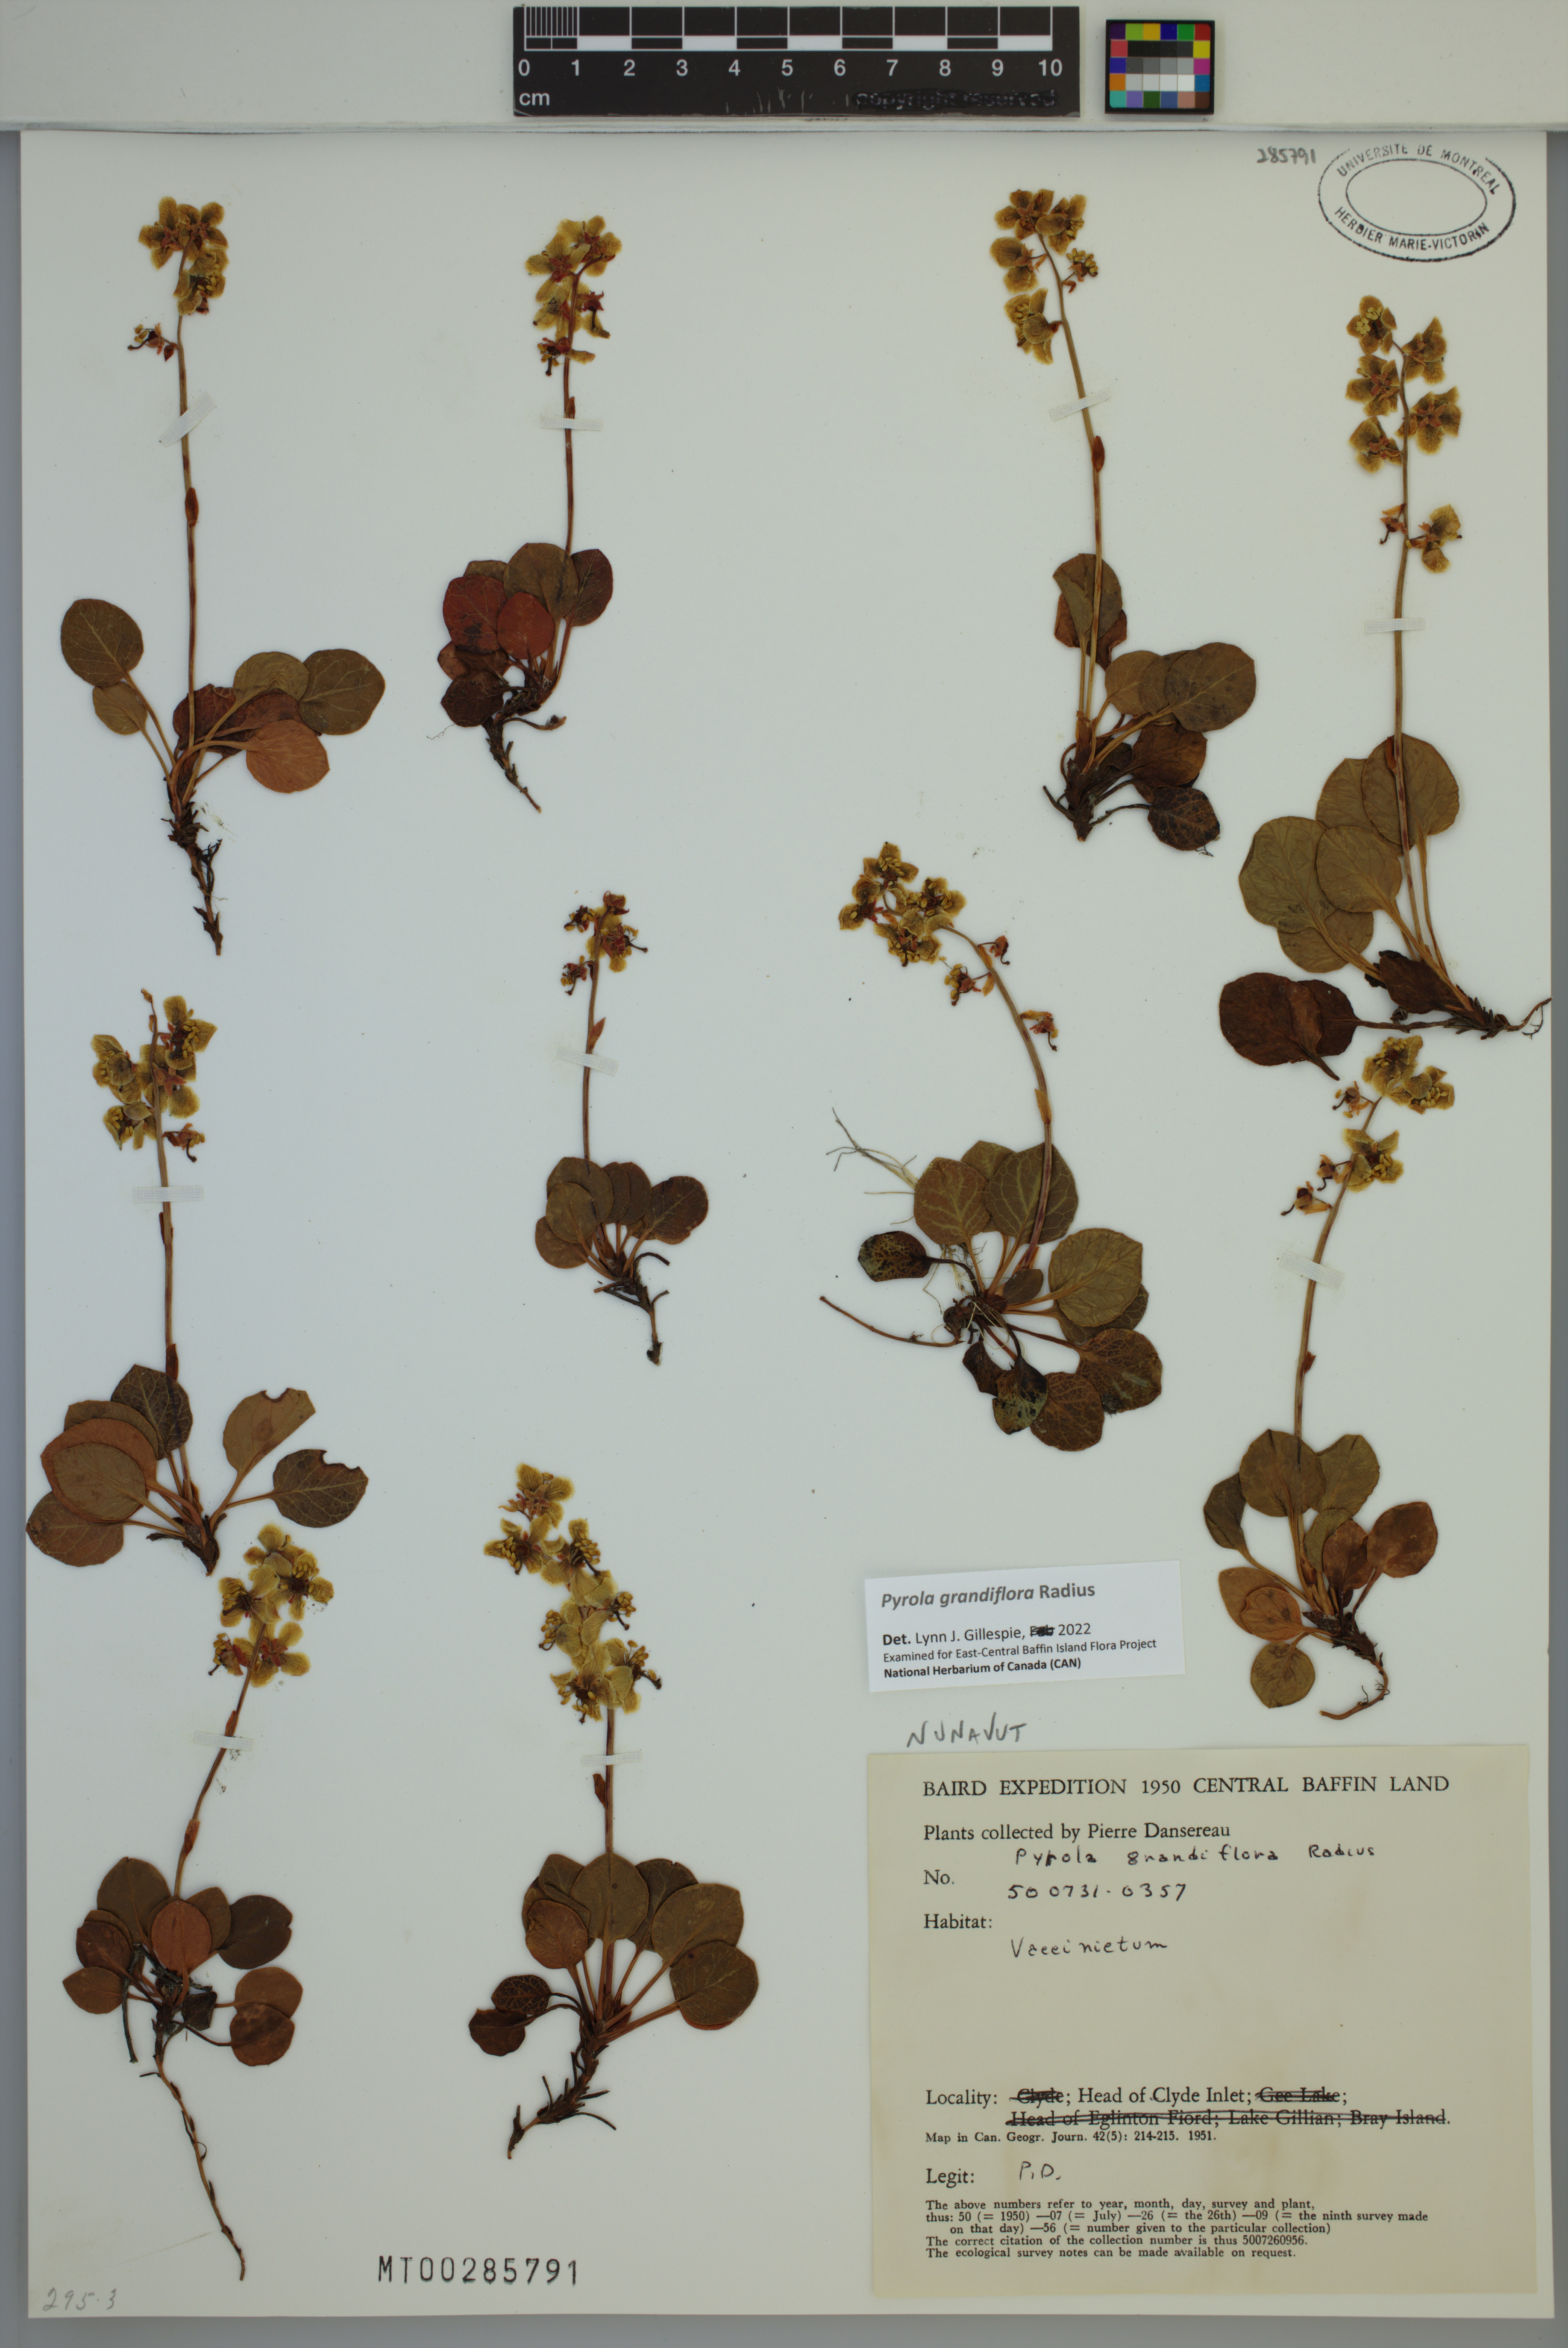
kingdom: Plantae
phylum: Tracheophyta
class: Magnoliopsida
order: Ericales
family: Ericaceae
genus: Pyrola
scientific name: Pyrola grandiflora
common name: Arctic pyrola
